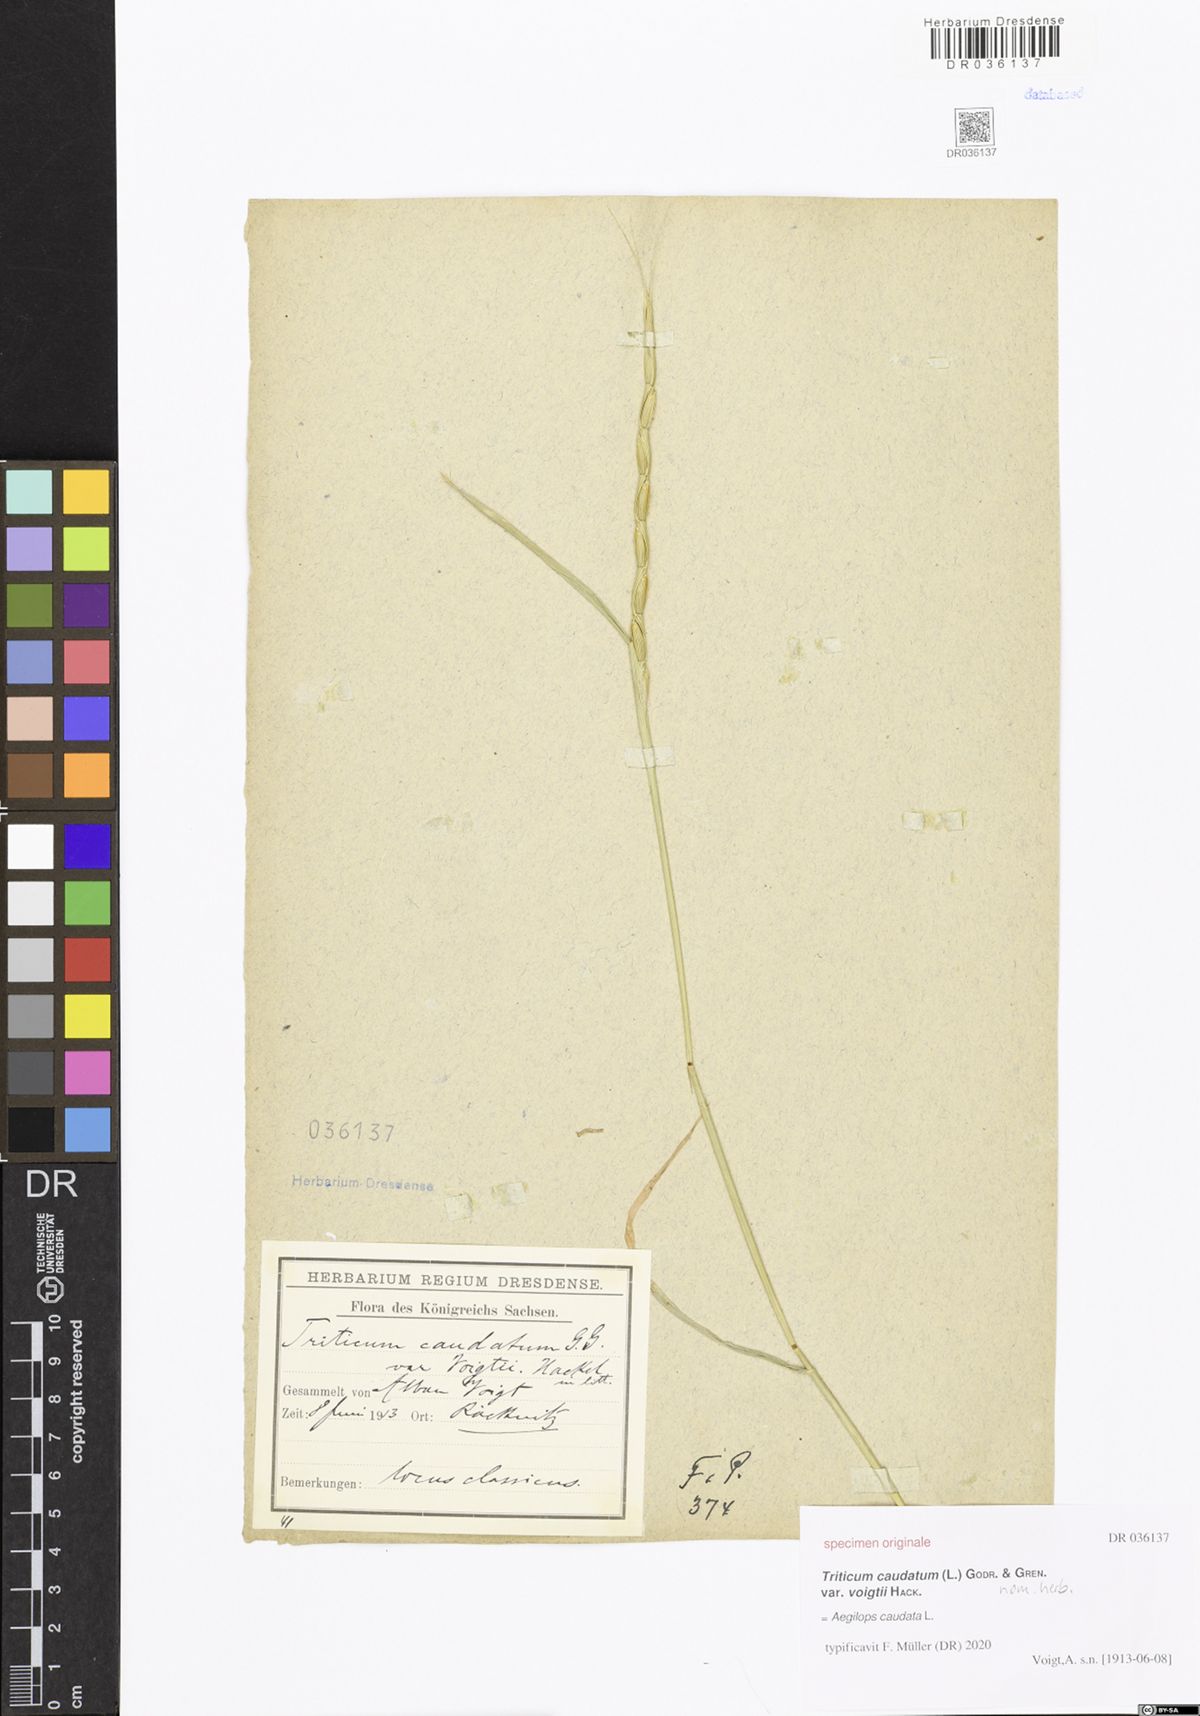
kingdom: Plantae
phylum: Tracheophyta
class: Liliopsida
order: Poales
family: Poaceae
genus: Aegilops
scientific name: Aegilops caudata
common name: Cretan hard-grass
